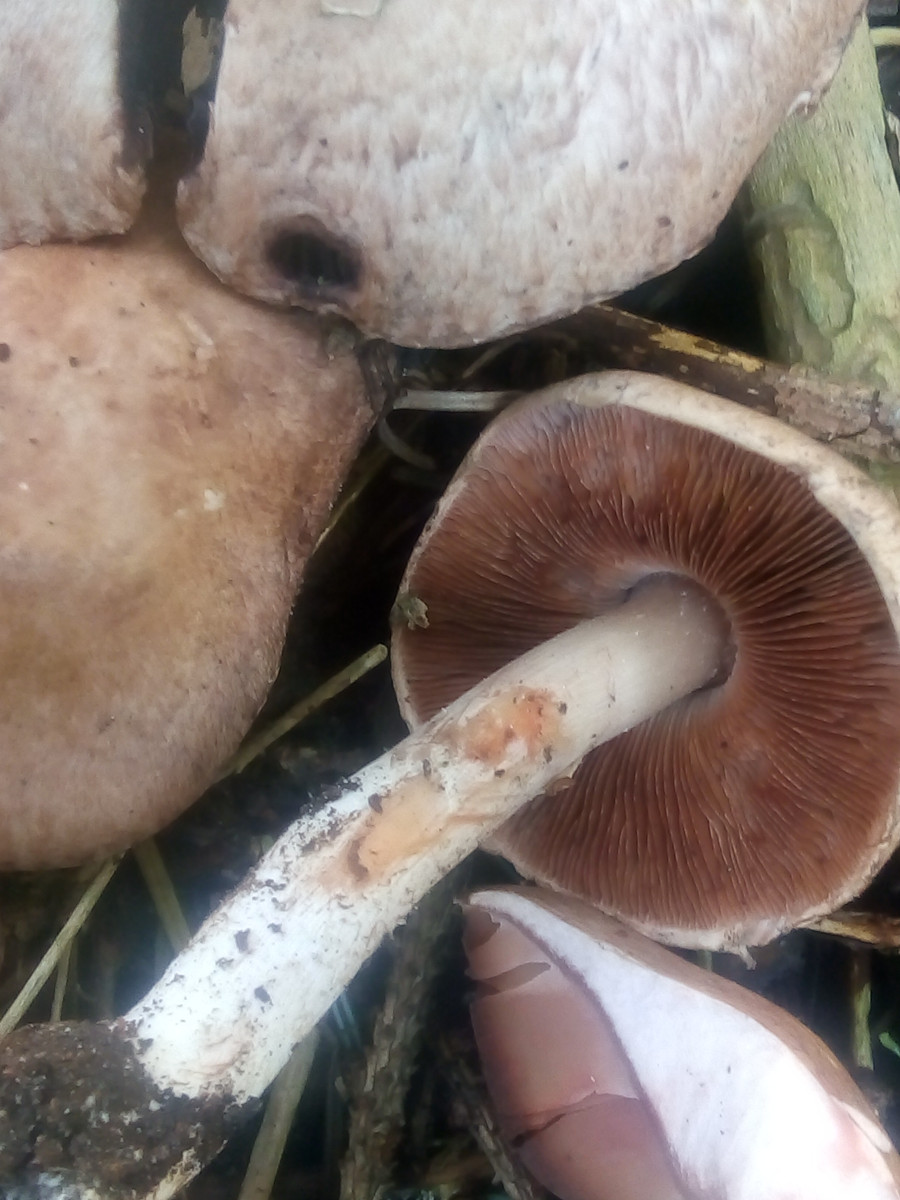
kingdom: Fungi
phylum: Basidiomycota
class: Agaricomycetes
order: Agaricales
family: Agaricaceae
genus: Agaricus
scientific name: Agaricus sylvaticus
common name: lille blod-champignon
